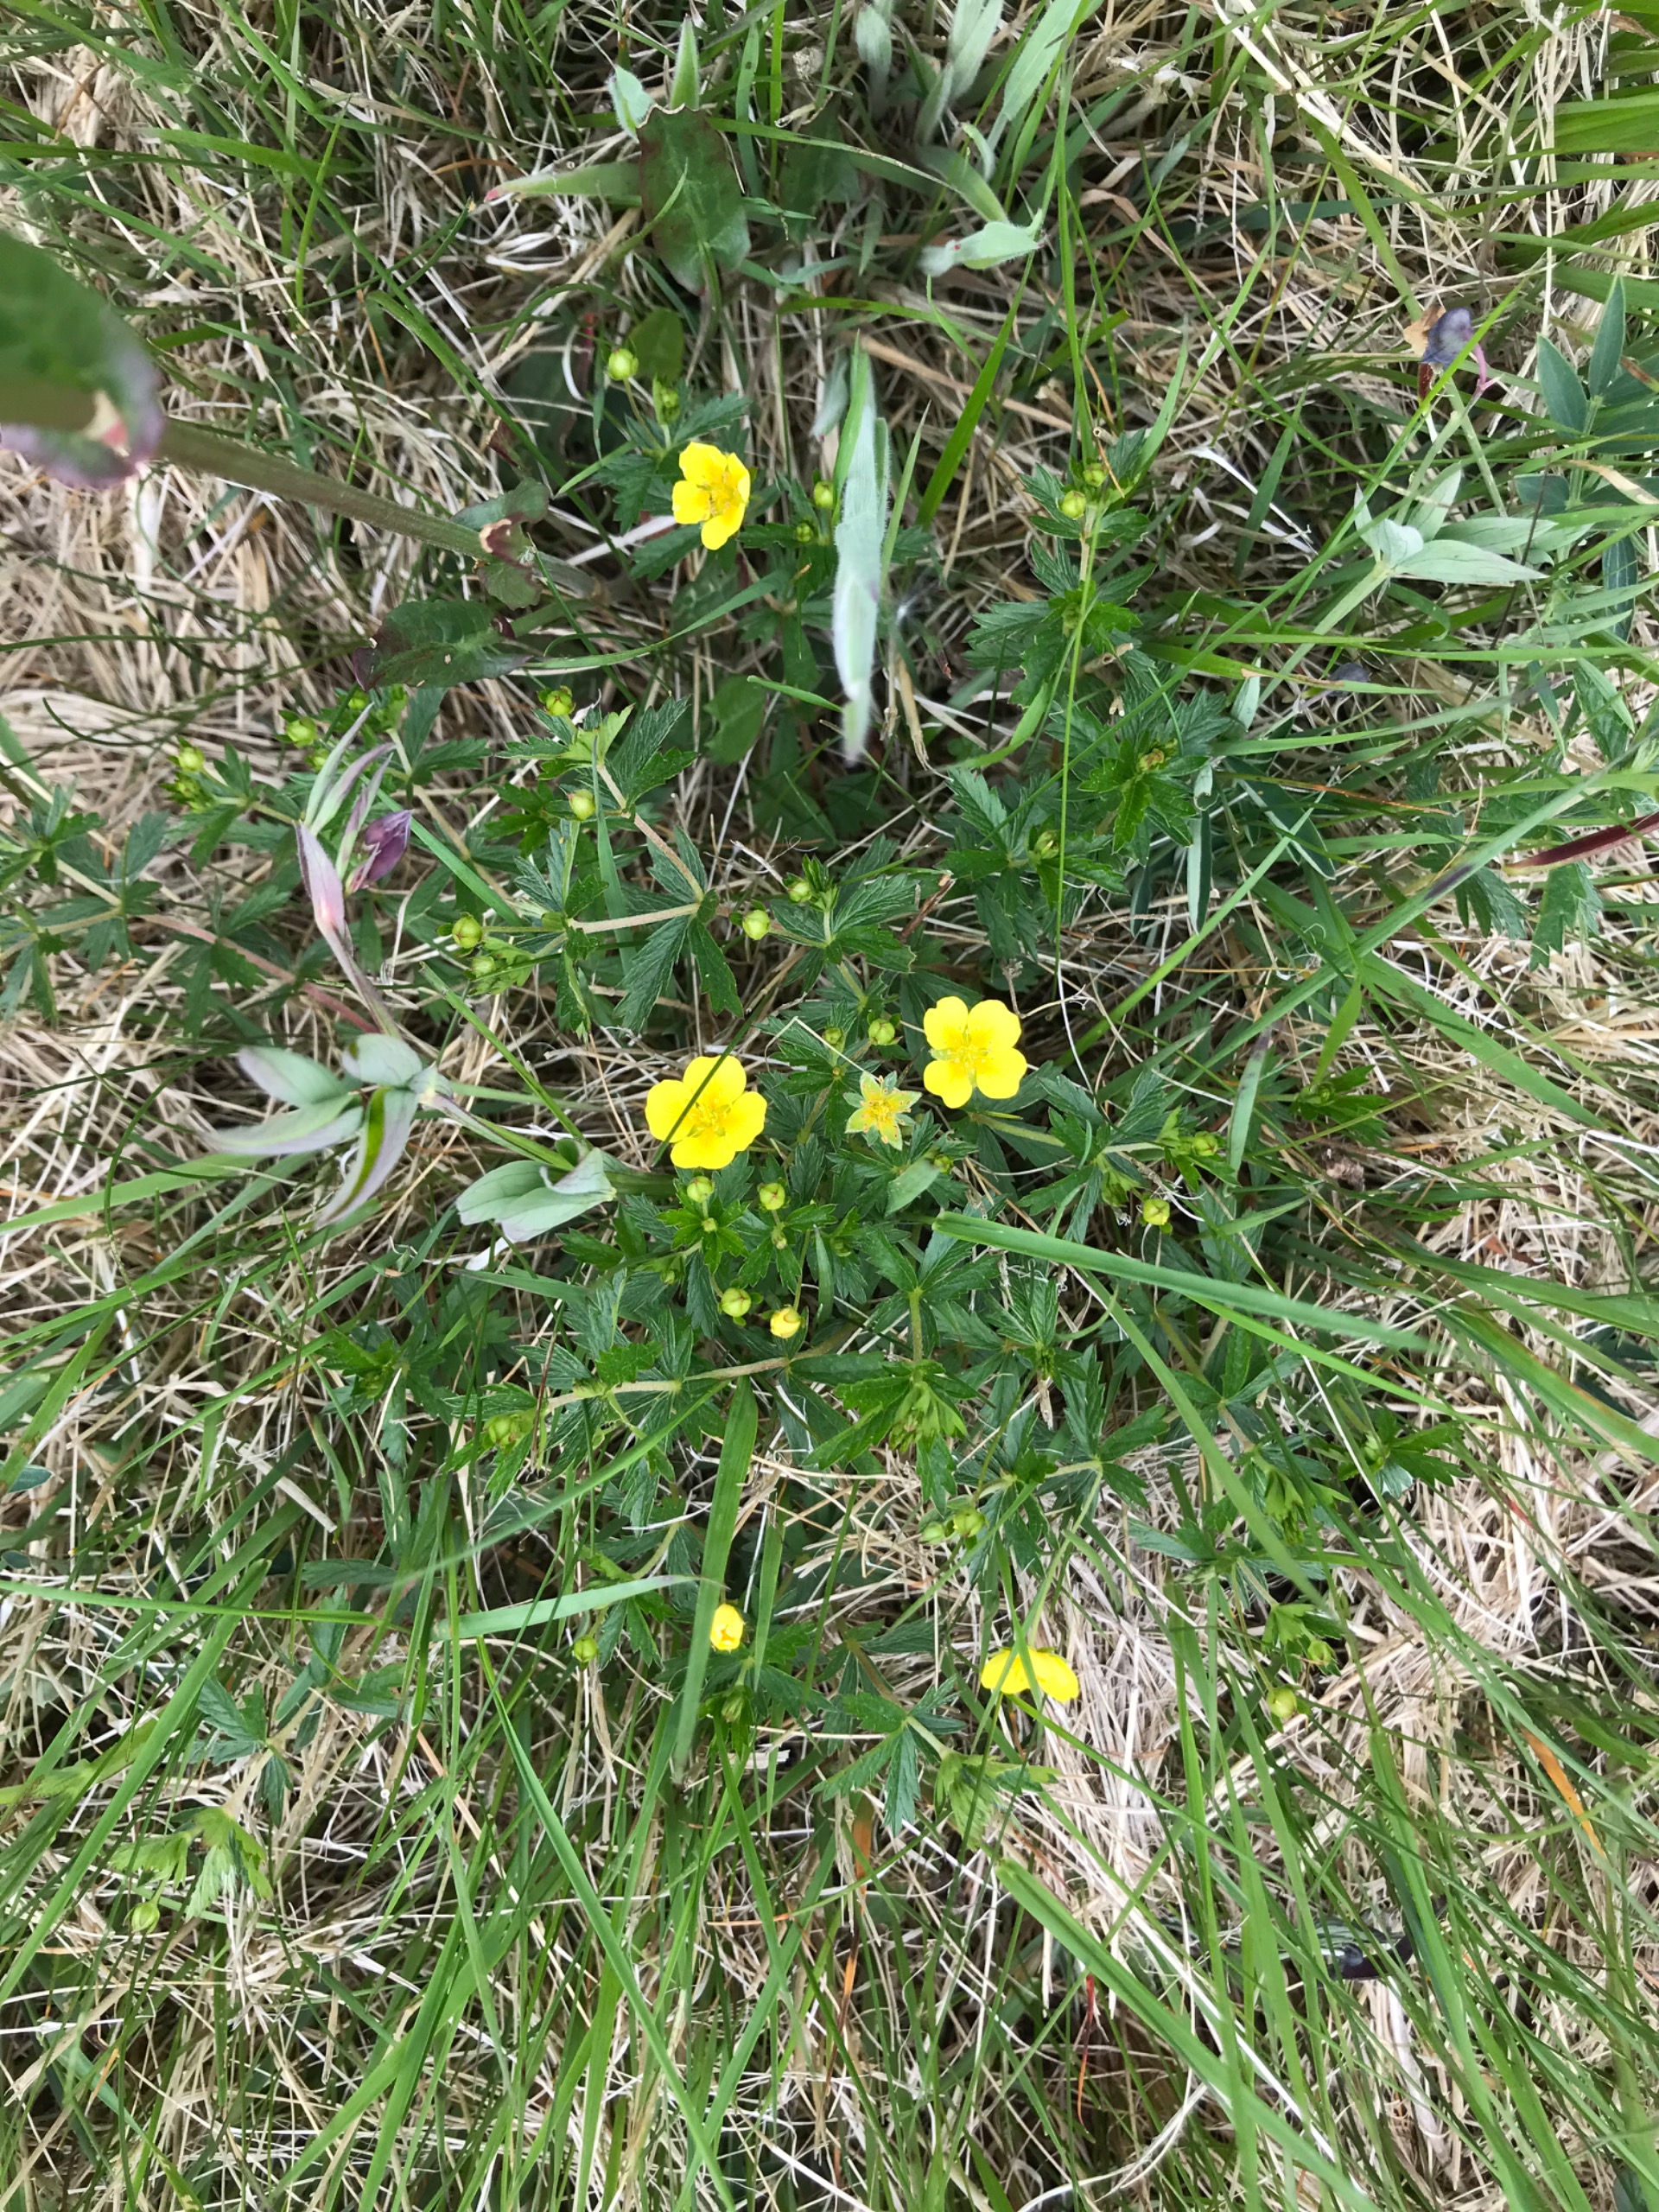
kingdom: Plantae
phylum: Tracheophyta
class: Magnoliopsida
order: Rosales
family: Rosaceae
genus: Potentilla
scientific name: Potentilla erecta
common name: Tormentil
